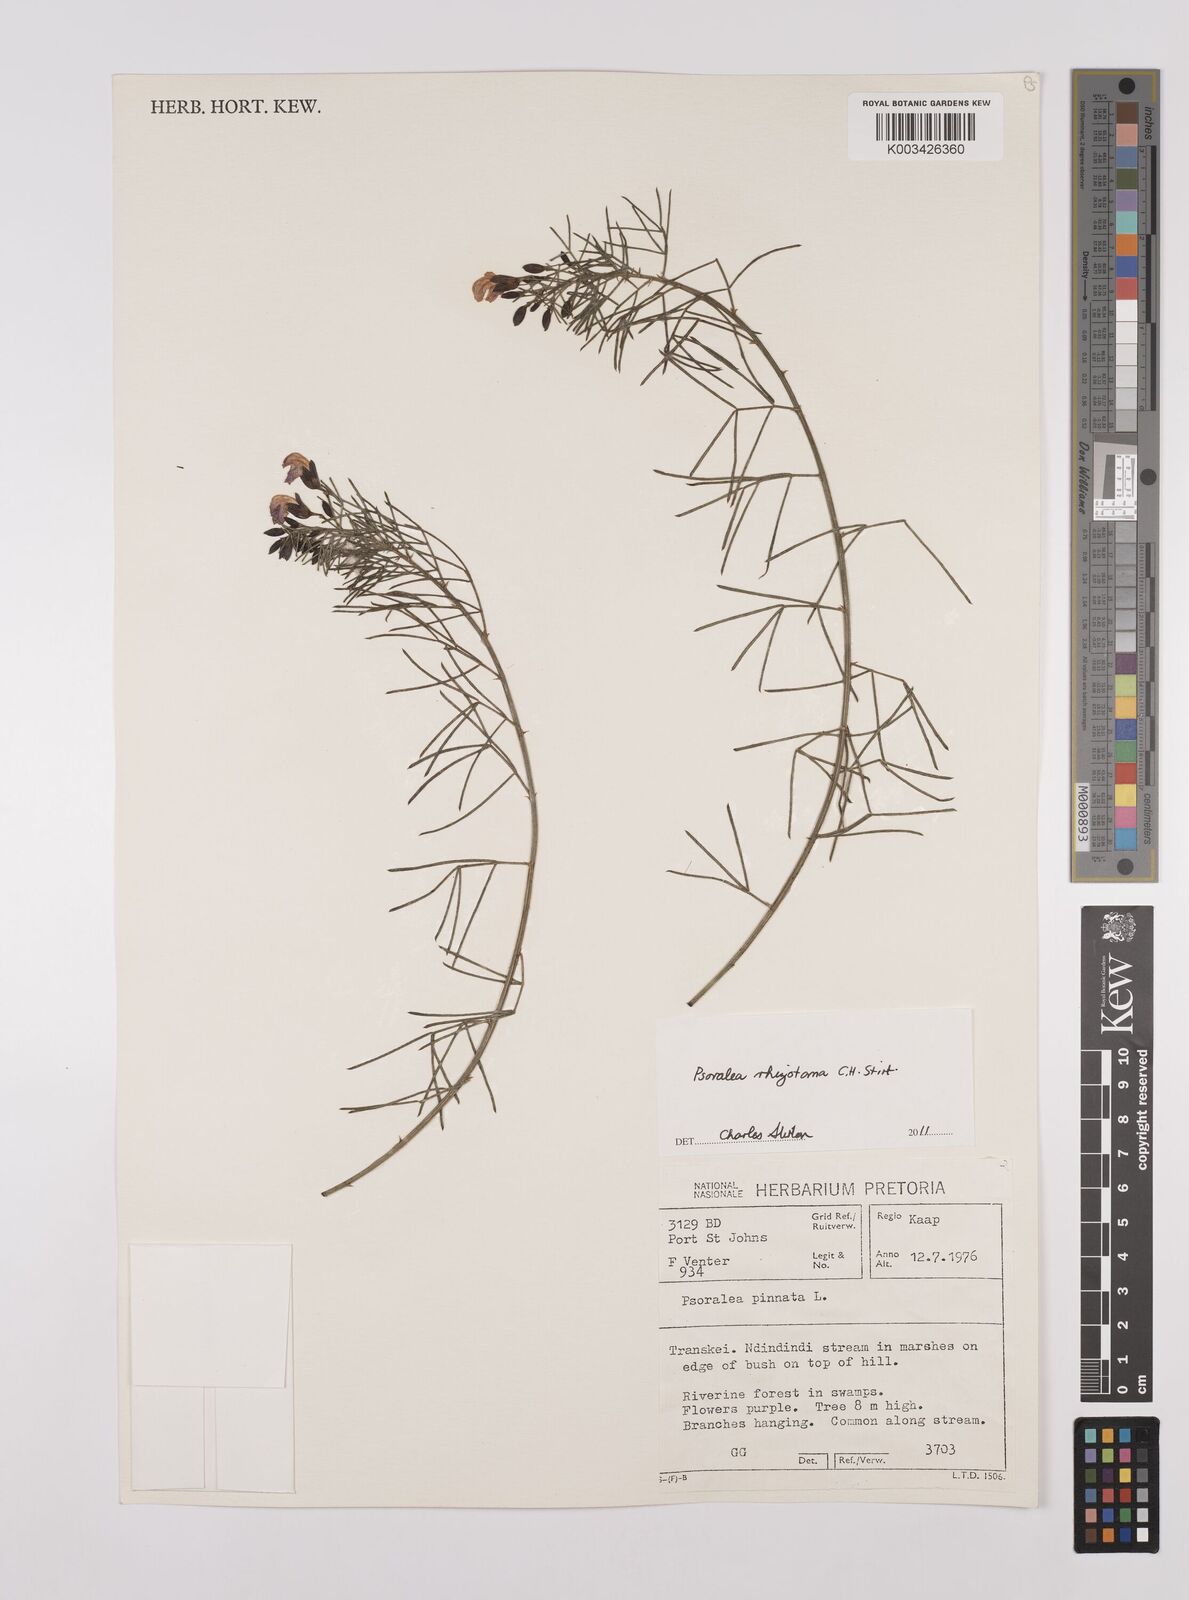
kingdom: Plantae
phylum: Tracheophyta
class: Magnoliopsida
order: Fabales
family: Fabaceae
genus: Psoralea
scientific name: Psoralea rhizotoma
